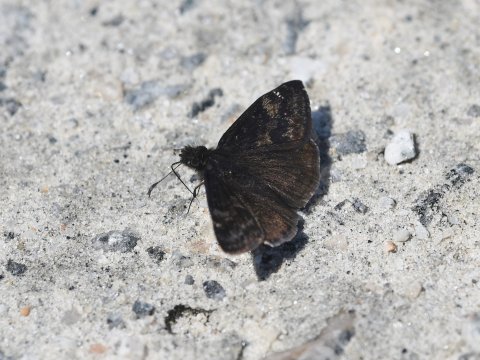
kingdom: Animalia
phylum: Arthropoda
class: Insecta
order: Lepidoptera
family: Hesperiidae
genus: Gesta
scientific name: Gesta
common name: Wild Indigo Duskywing
